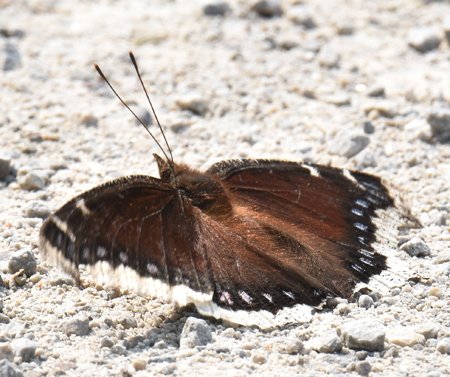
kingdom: Animalia
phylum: Arthropoda
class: Insecta
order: Lepidoptera
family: Nymphalidae
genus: Nymphalis
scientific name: Nymphalis antiopa
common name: Mourning Cloak
